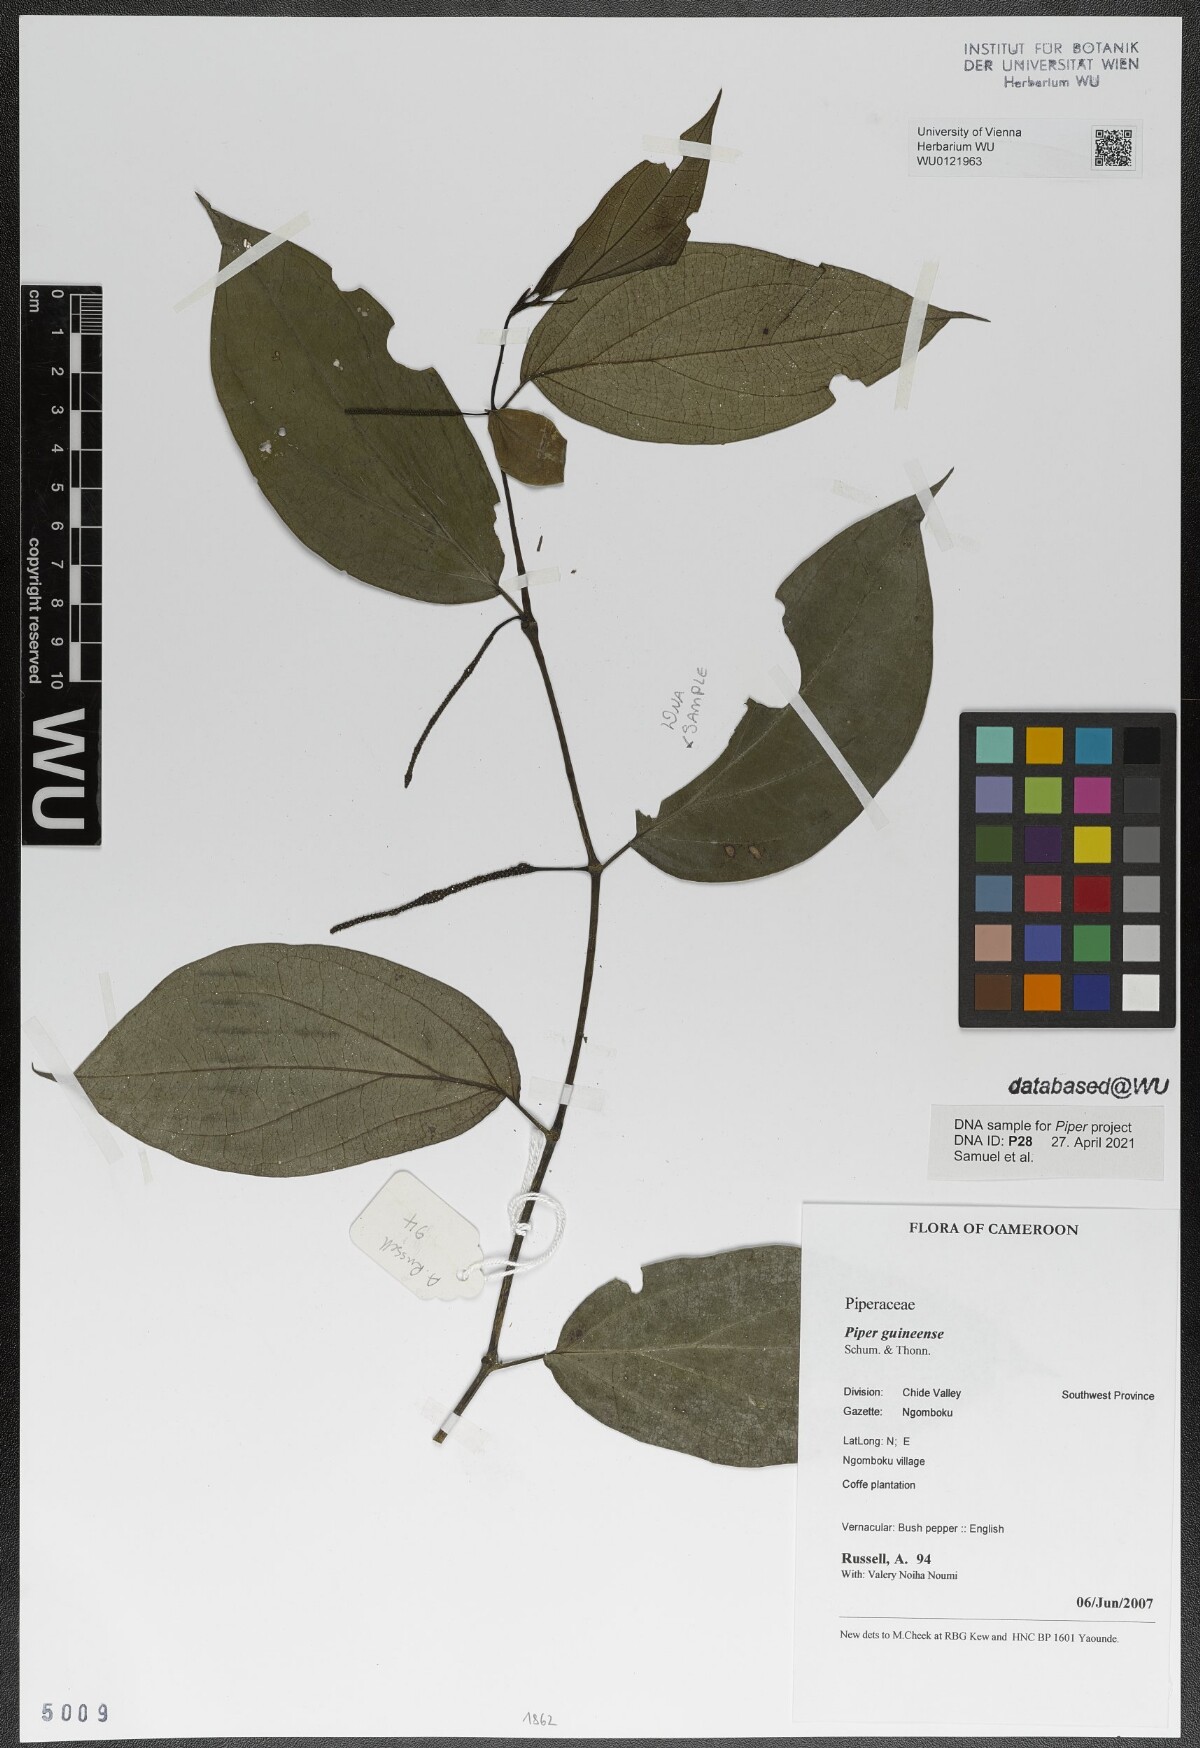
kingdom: Plantae
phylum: Tracheophyta
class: Magnoliopsida
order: Piperales
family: Piperaceae
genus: Piper
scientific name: Piper guineense
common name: Benin pepper
